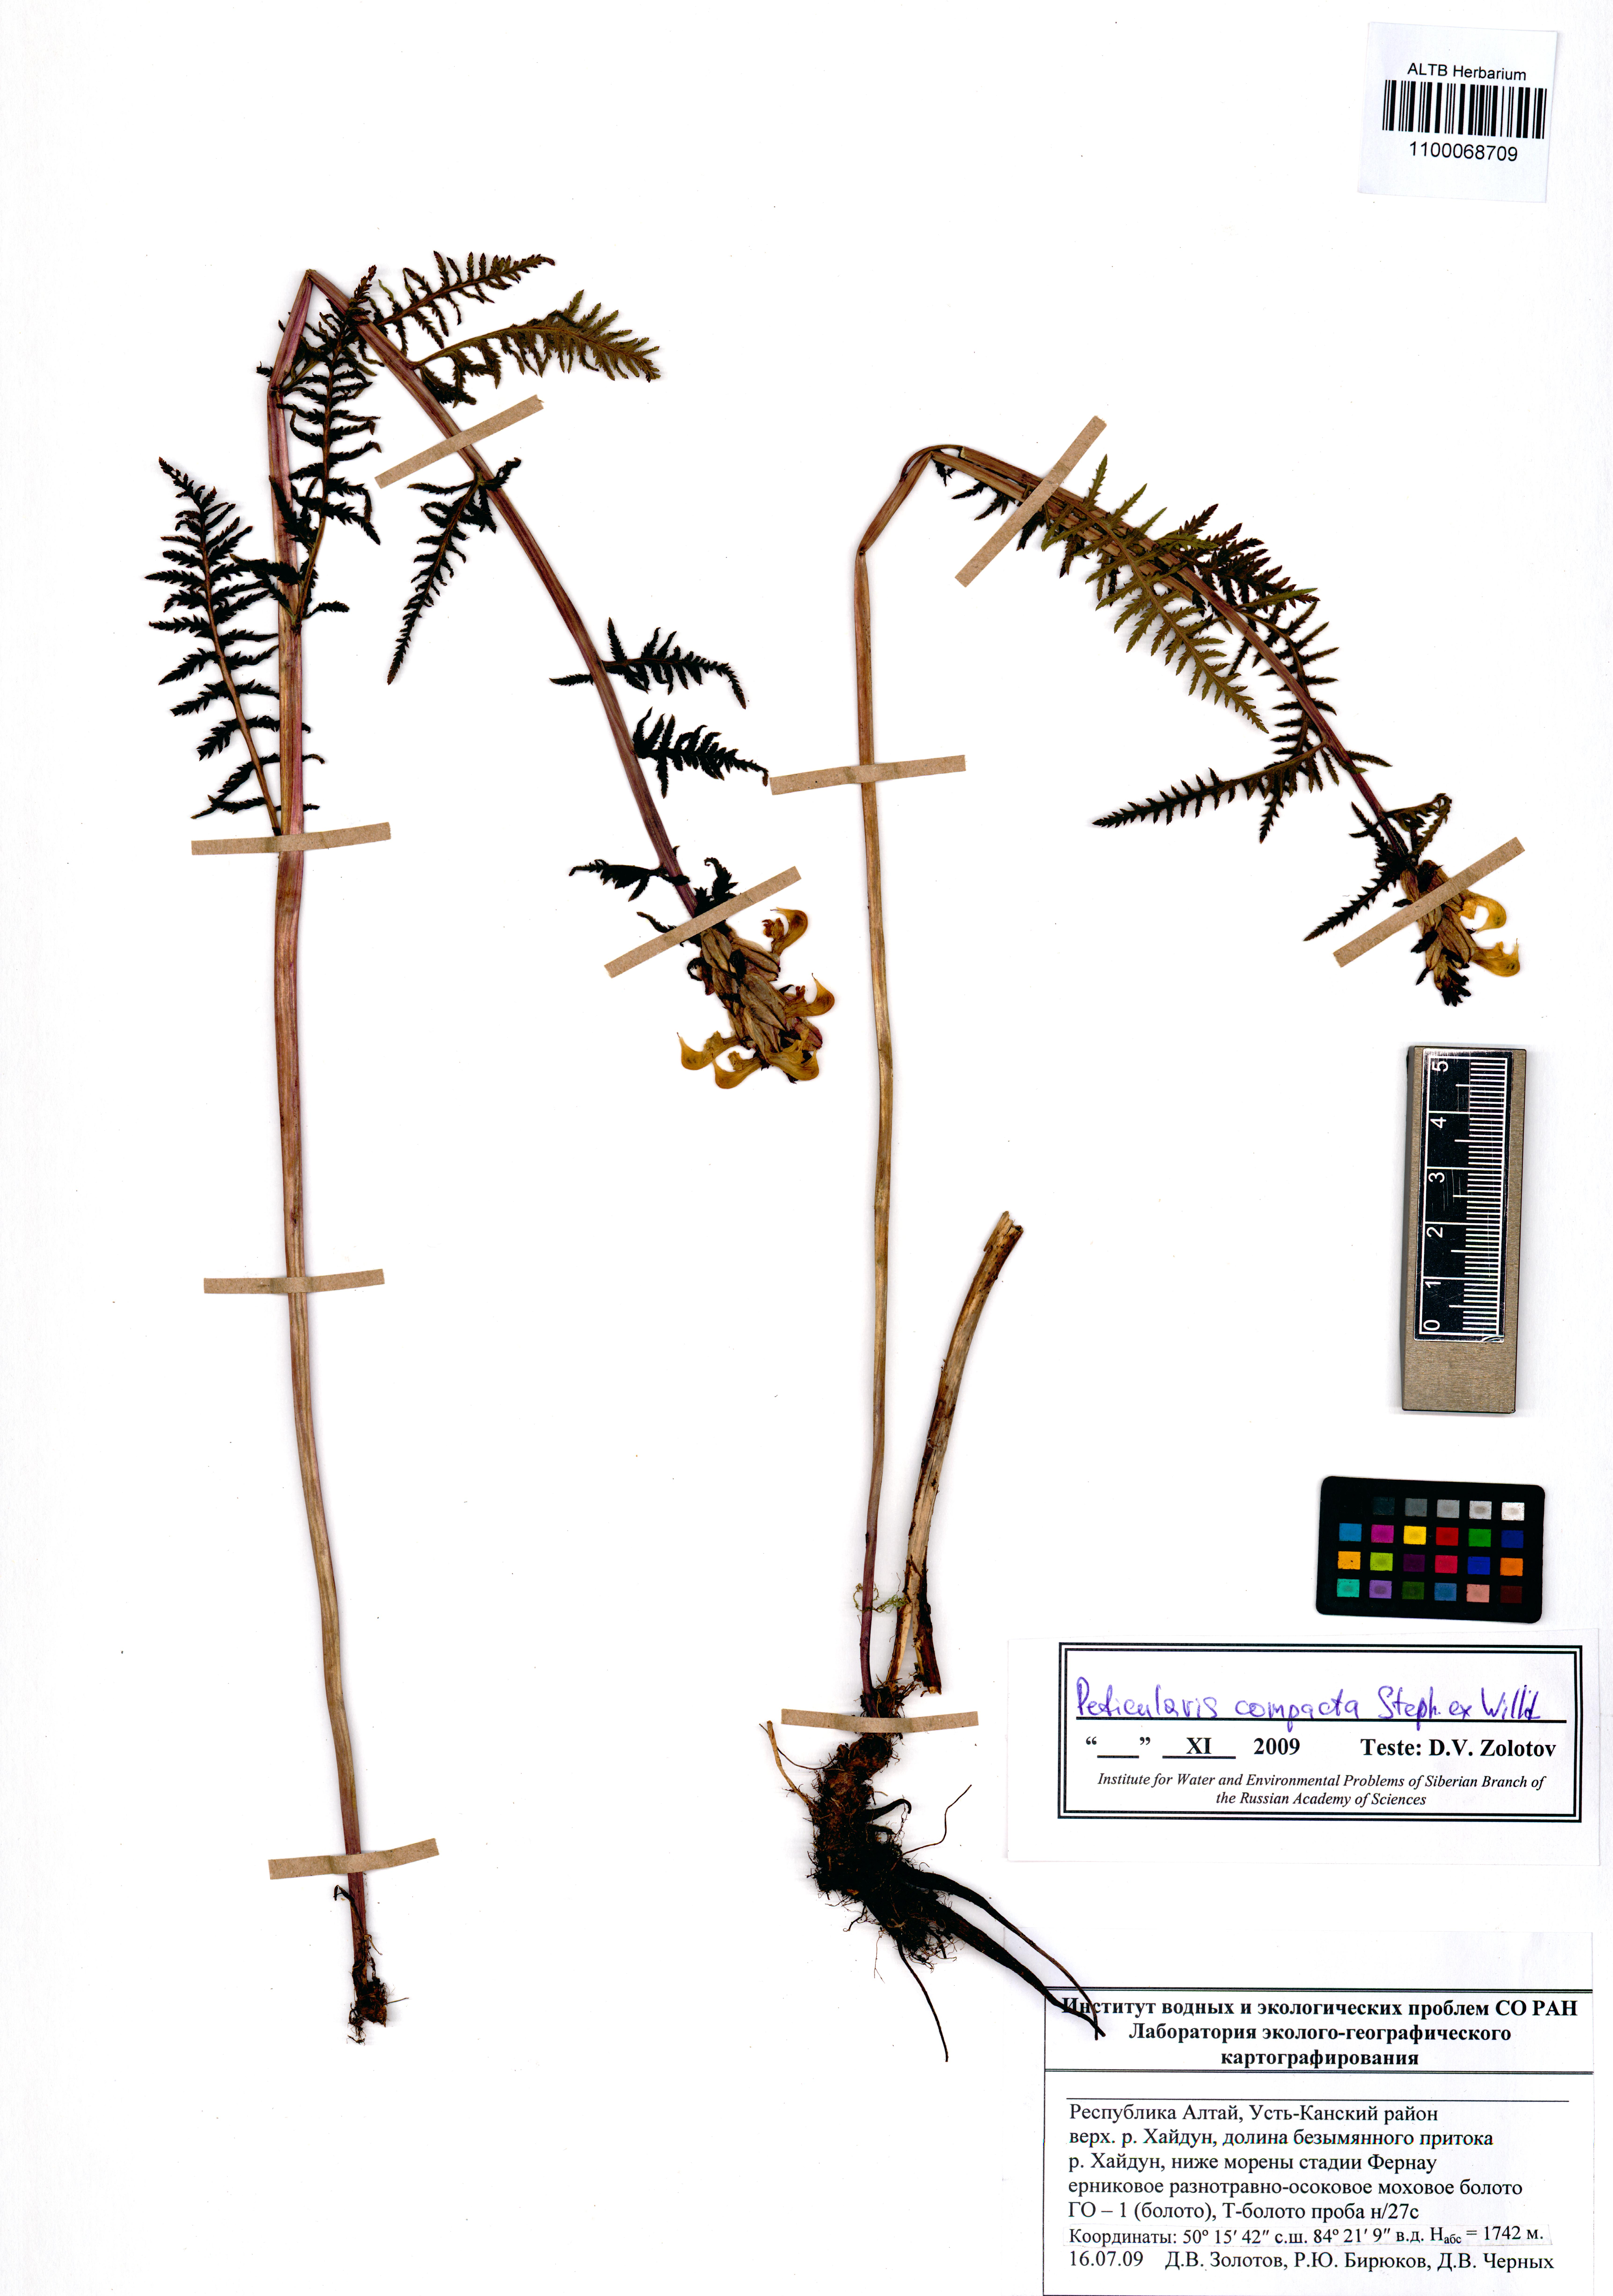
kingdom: Plantae
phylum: Tracheophyta
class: Magnoliopsida
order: Lamiales
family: Orobanchaceae
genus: Pedicularis
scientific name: Pedicularis compacta
